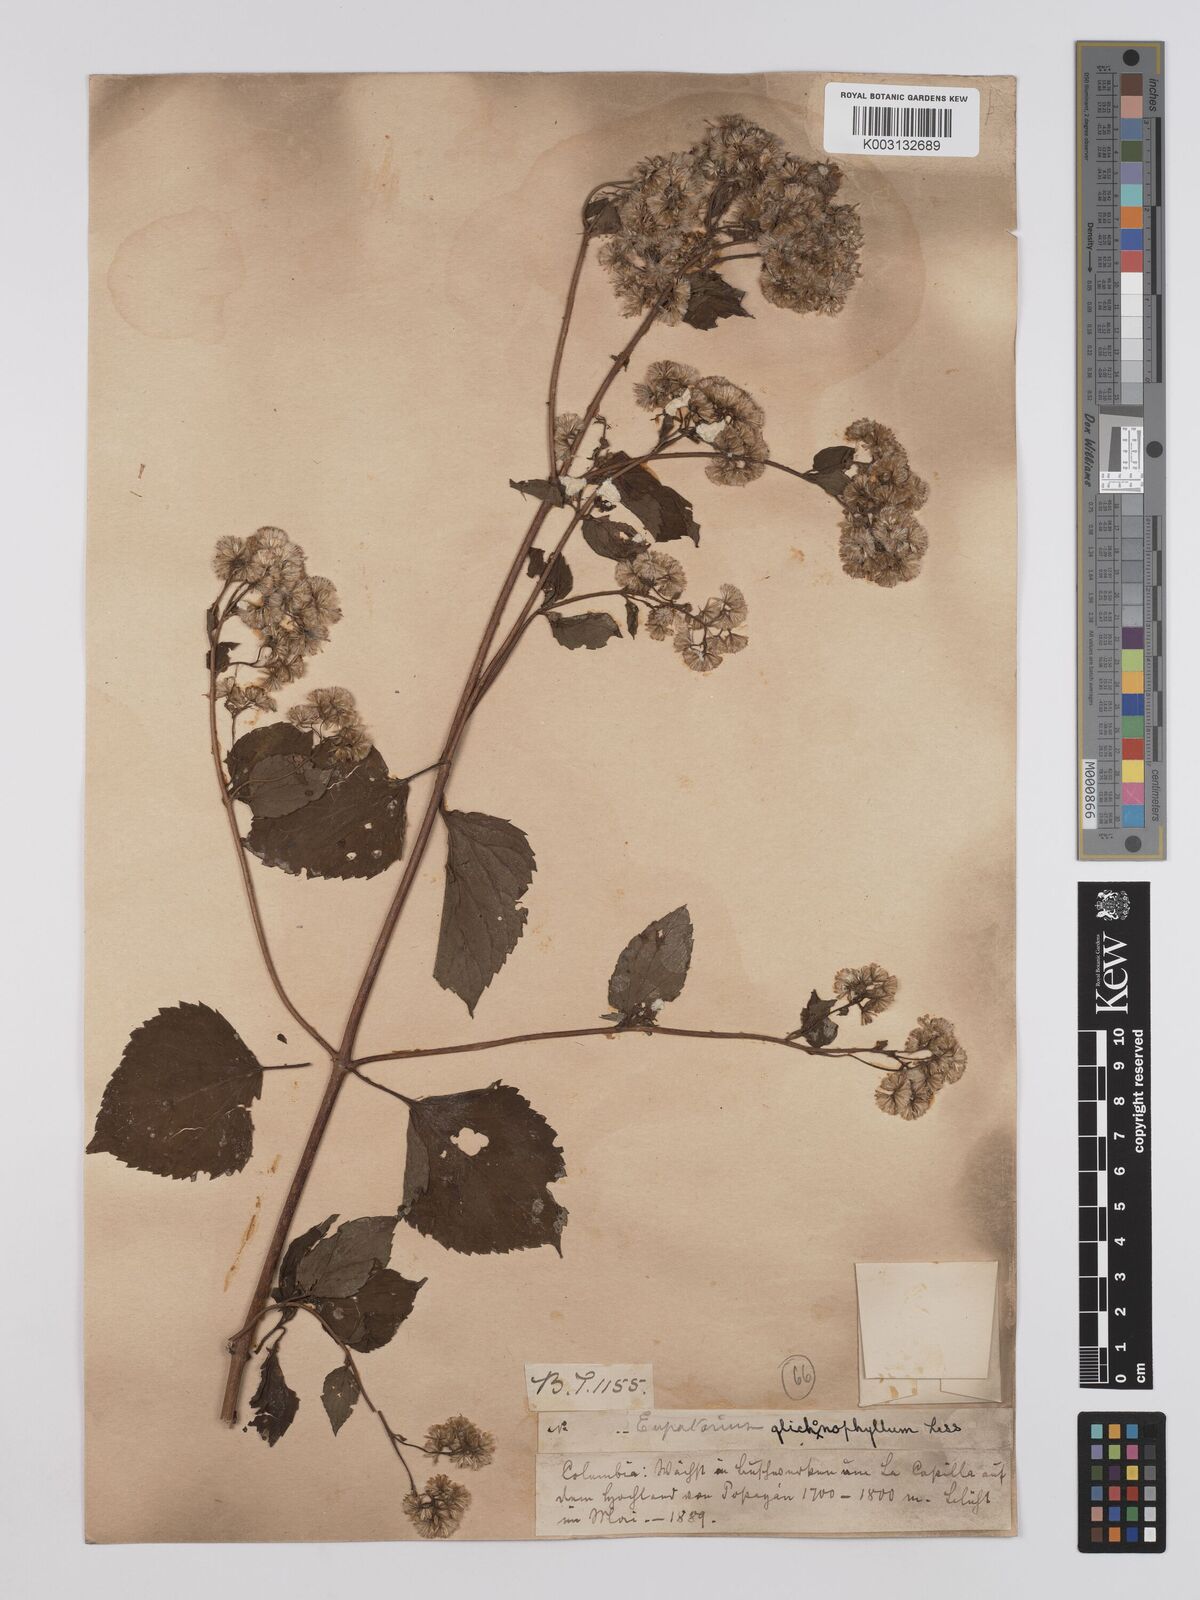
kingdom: Plantae
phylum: Tracheophyta
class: Magnoliopsida
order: Asterales
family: Asteraceae
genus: Ageratina
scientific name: Ageratina glechonophylla
